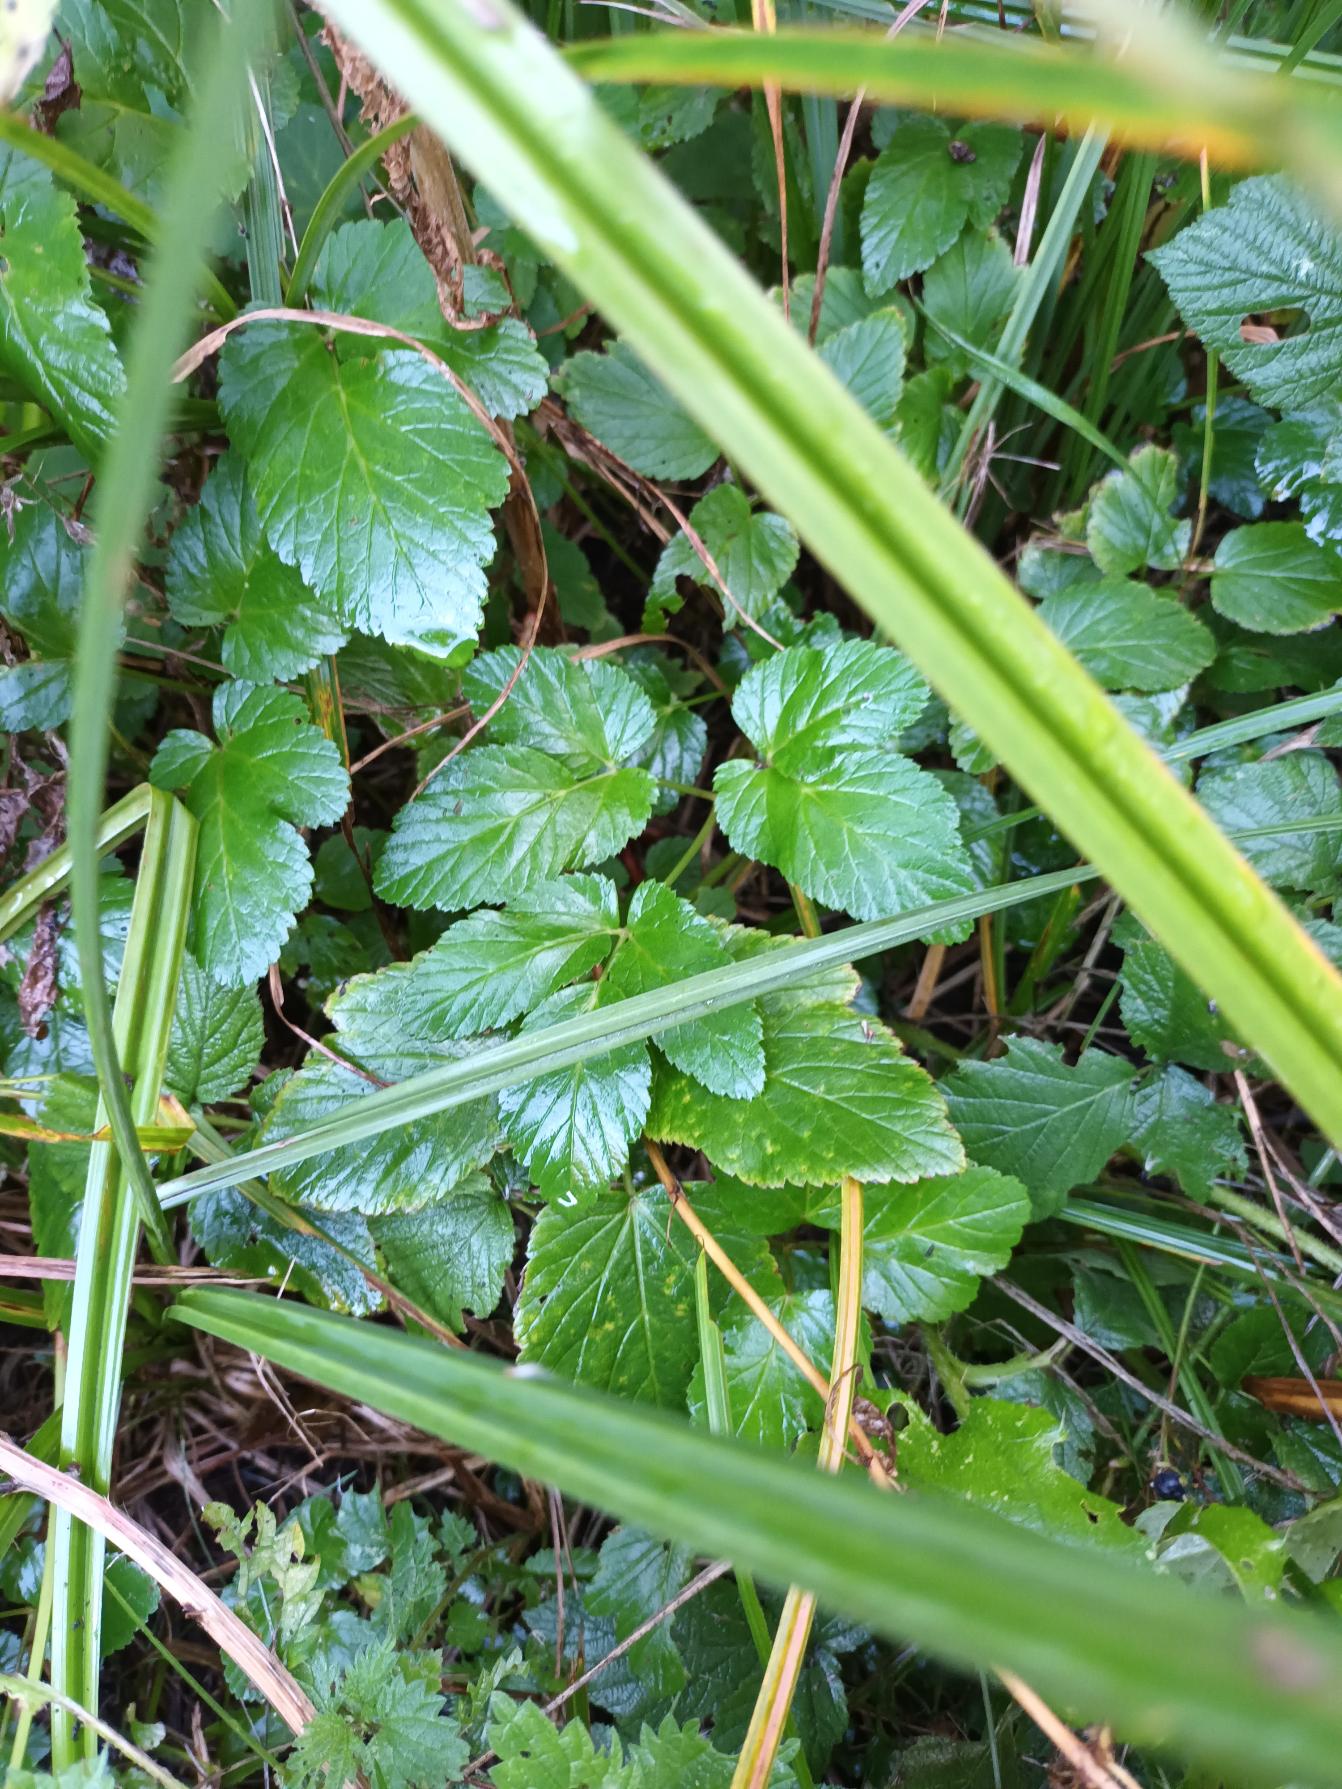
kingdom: Plantae
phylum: Tracheophyta
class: Magnoliopsida
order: Apiales
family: Apiaceae
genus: Aegopodium
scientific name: Aegopodium podagraria
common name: Skvalderkål
